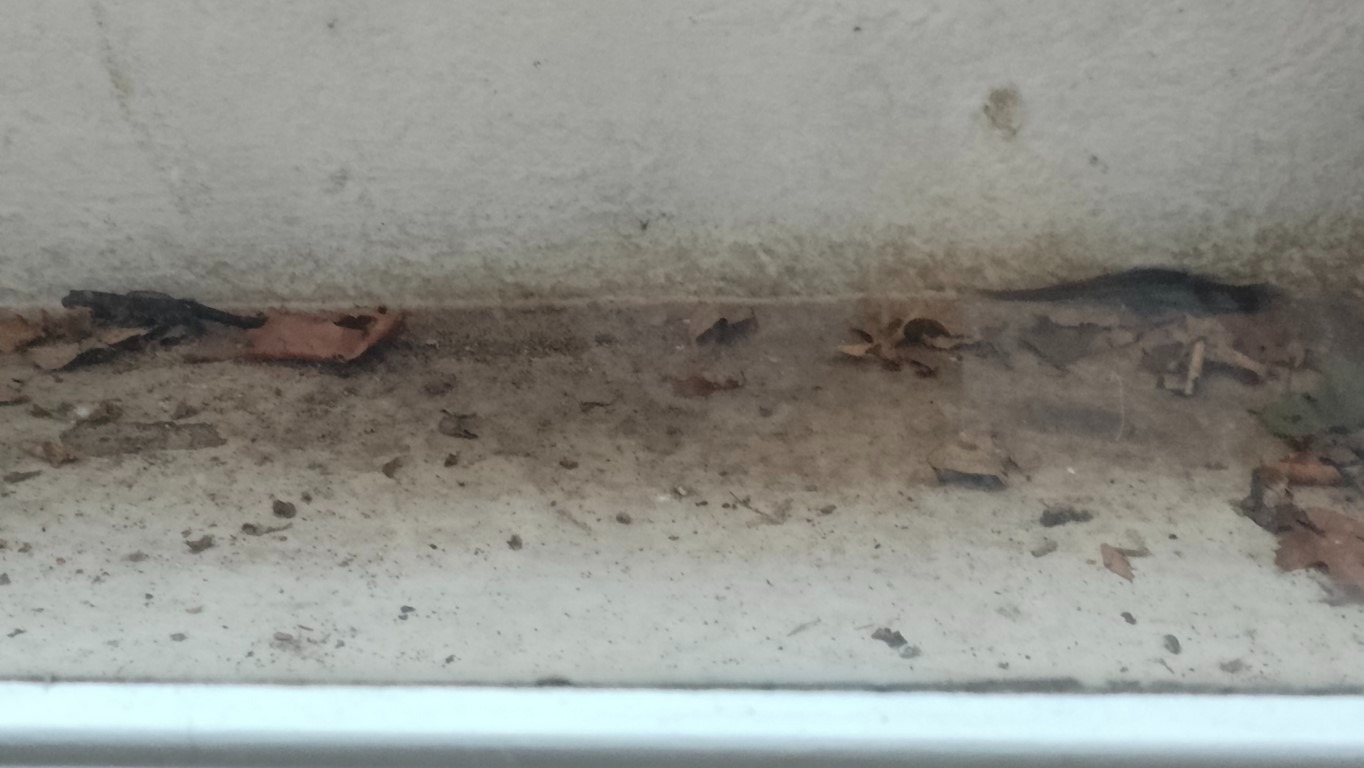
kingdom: Animalia
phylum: Chordata
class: Amphibia
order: Caudata
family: Salamandridae
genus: Triturus
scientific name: Triturus cristatus
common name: Stor vandsalamander
